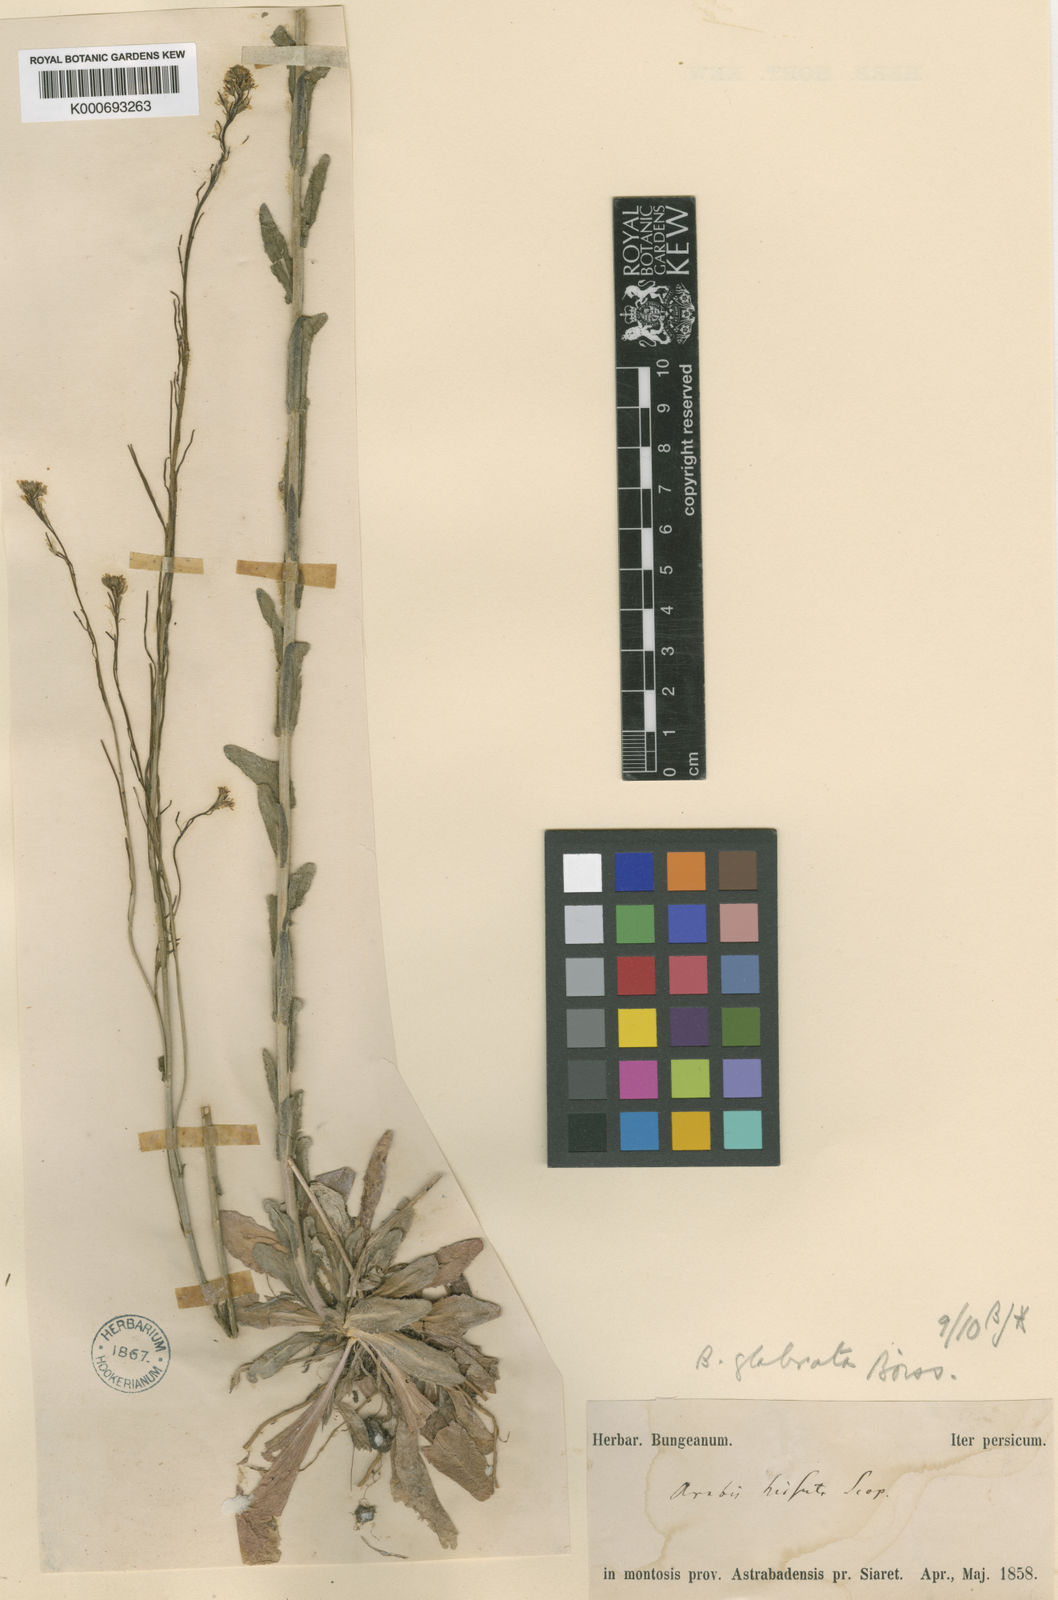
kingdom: Plantae
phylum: Tracheophyta
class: Magnoliopsida
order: Brassicales
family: Brassicaceae
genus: Arabis
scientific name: Arabis sagittata
